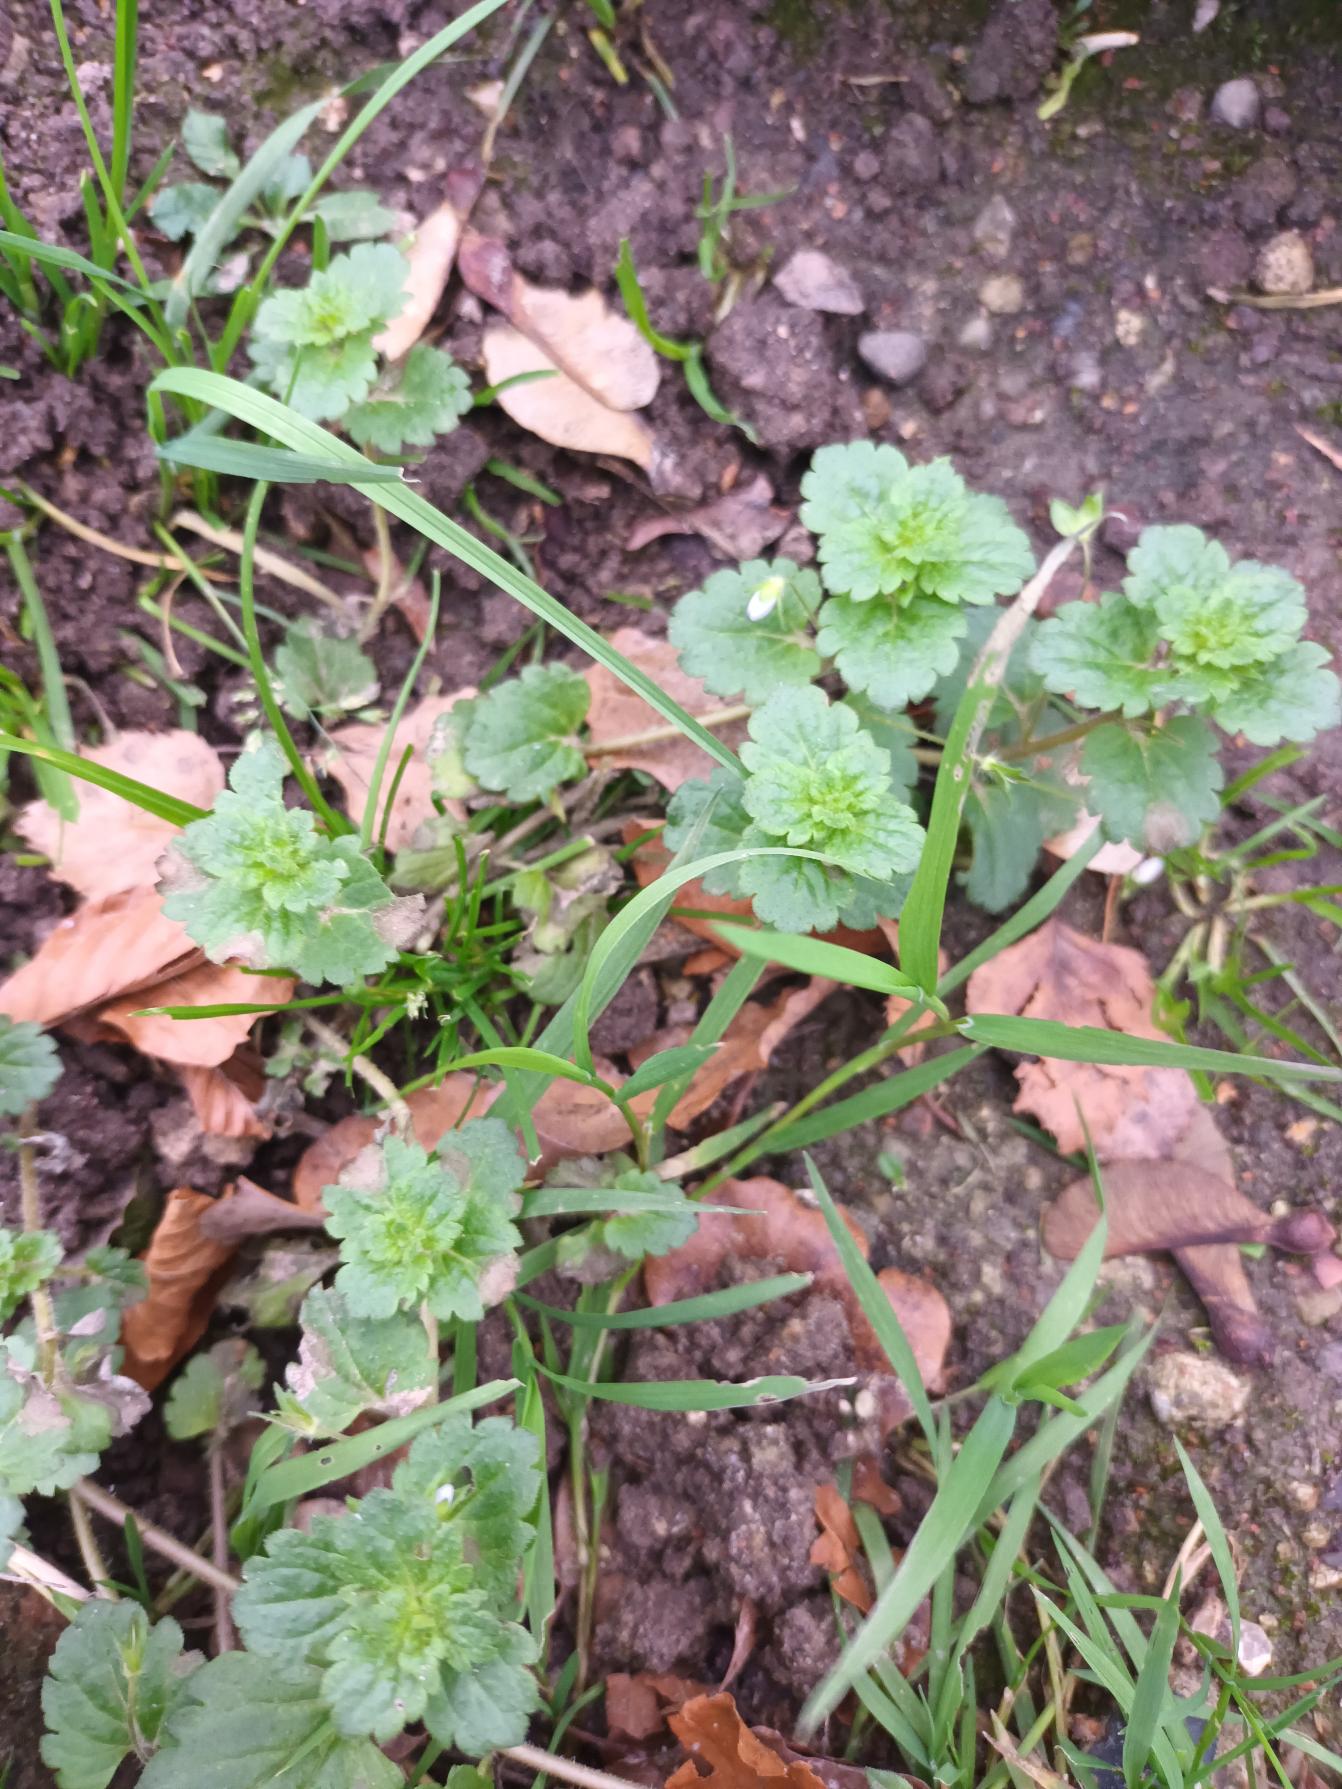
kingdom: Plantae
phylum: Tracheophyta
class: Magnoliopsida
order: Lamiales
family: Plantaginaceae
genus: Veronica
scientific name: Veronica persica
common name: Storkronet ærenpris
